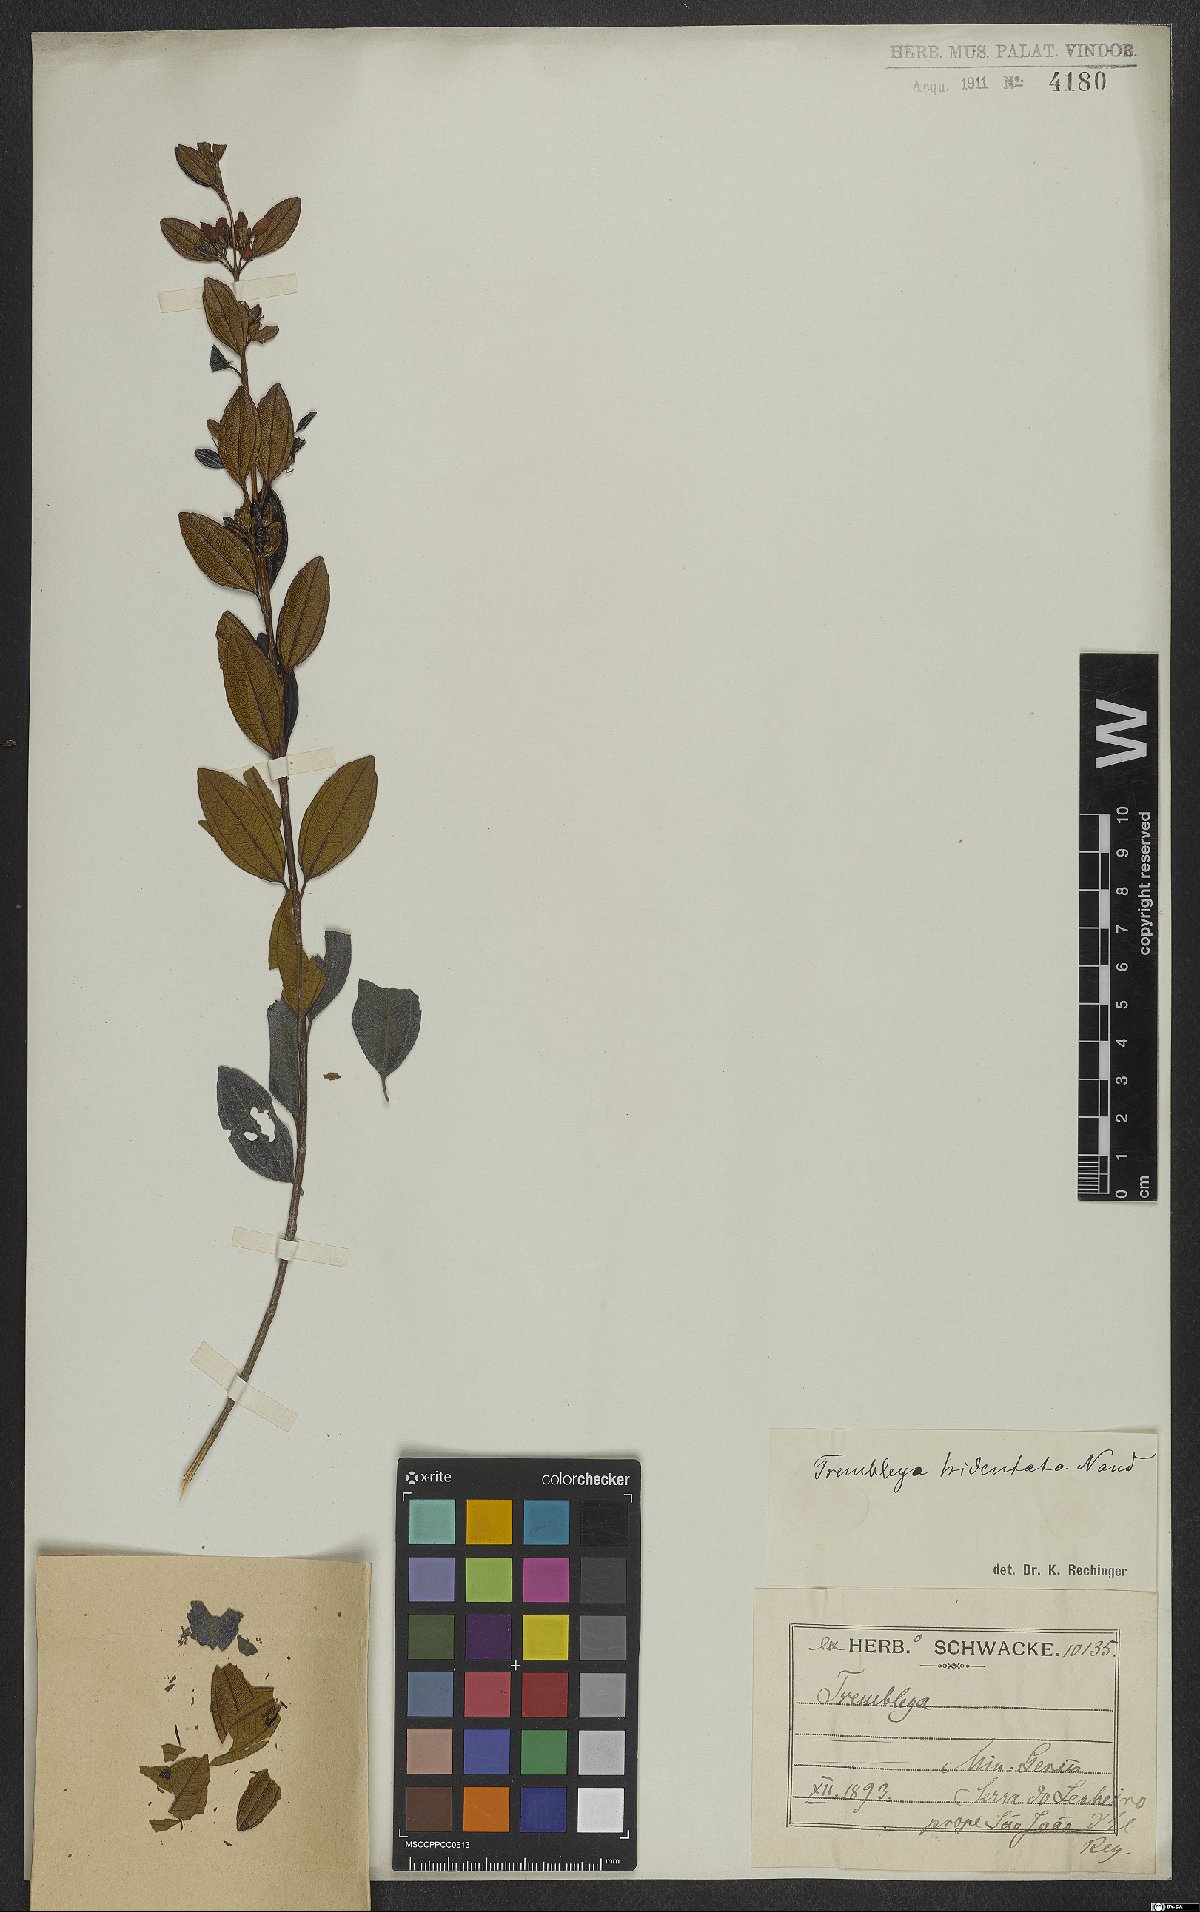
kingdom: Plantae
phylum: Tracheophyta
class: Magnoliopsida
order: Myrtales
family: Melastomataceae
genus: Microlicia
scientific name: Microlicia tridentata
